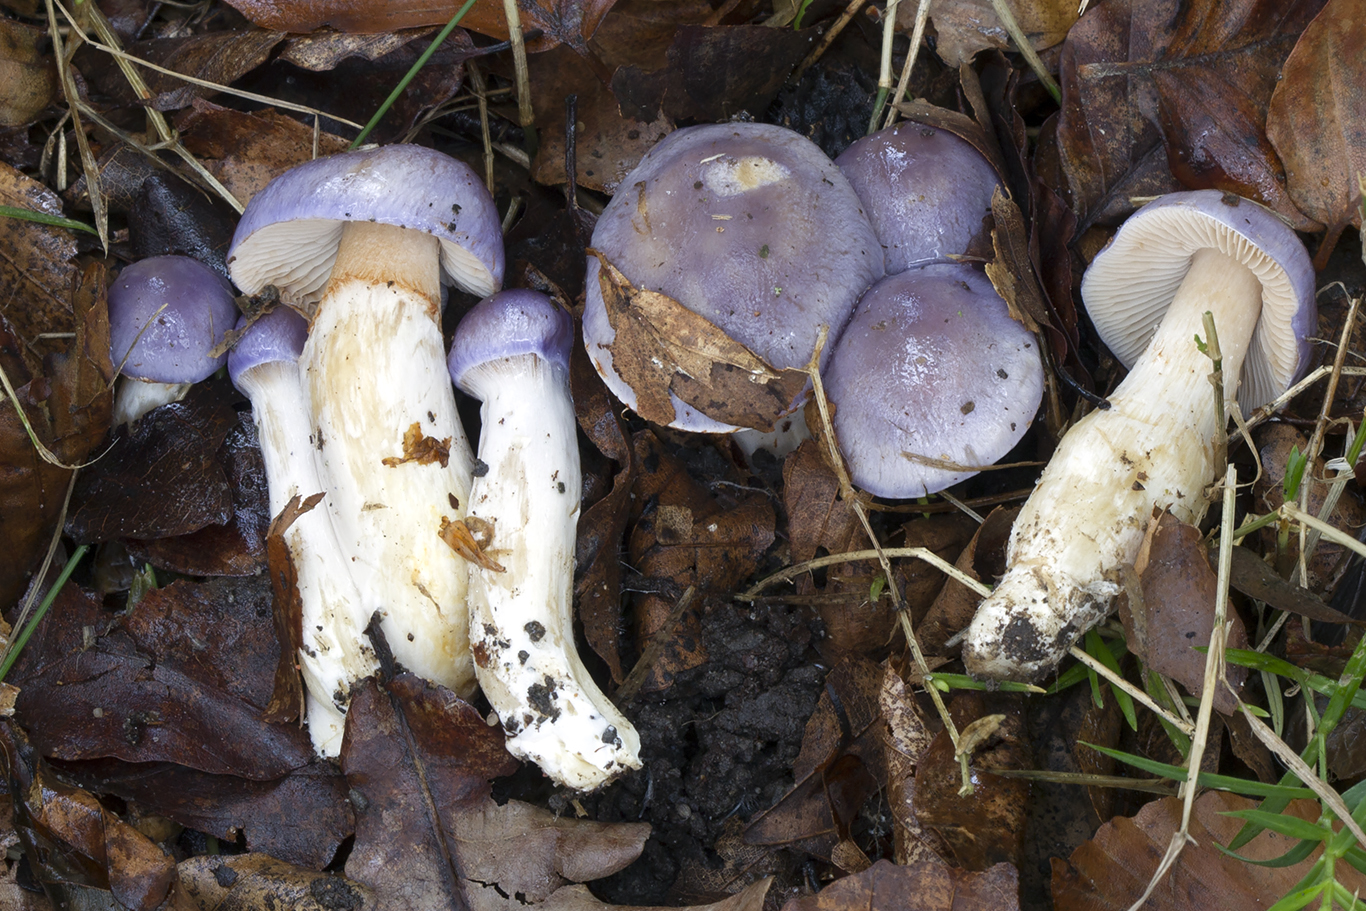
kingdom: Fungi
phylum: Basidiomycota
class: Agaricomycetes
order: Agaricales
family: Cortinariaceae
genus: Thaxterogaster
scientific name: Thaxterogaster croceocoeruleus
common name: blågullig slørhat
